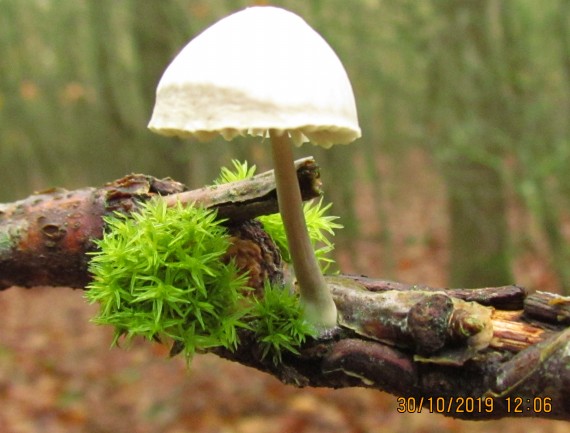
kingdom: Fungi
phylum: Basidiomycota
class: Agaricomycetes
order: Agaricales
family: Mycenaceae
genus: Mycena
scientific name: Mycena arcangeliana
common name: oliven-huesvamp
